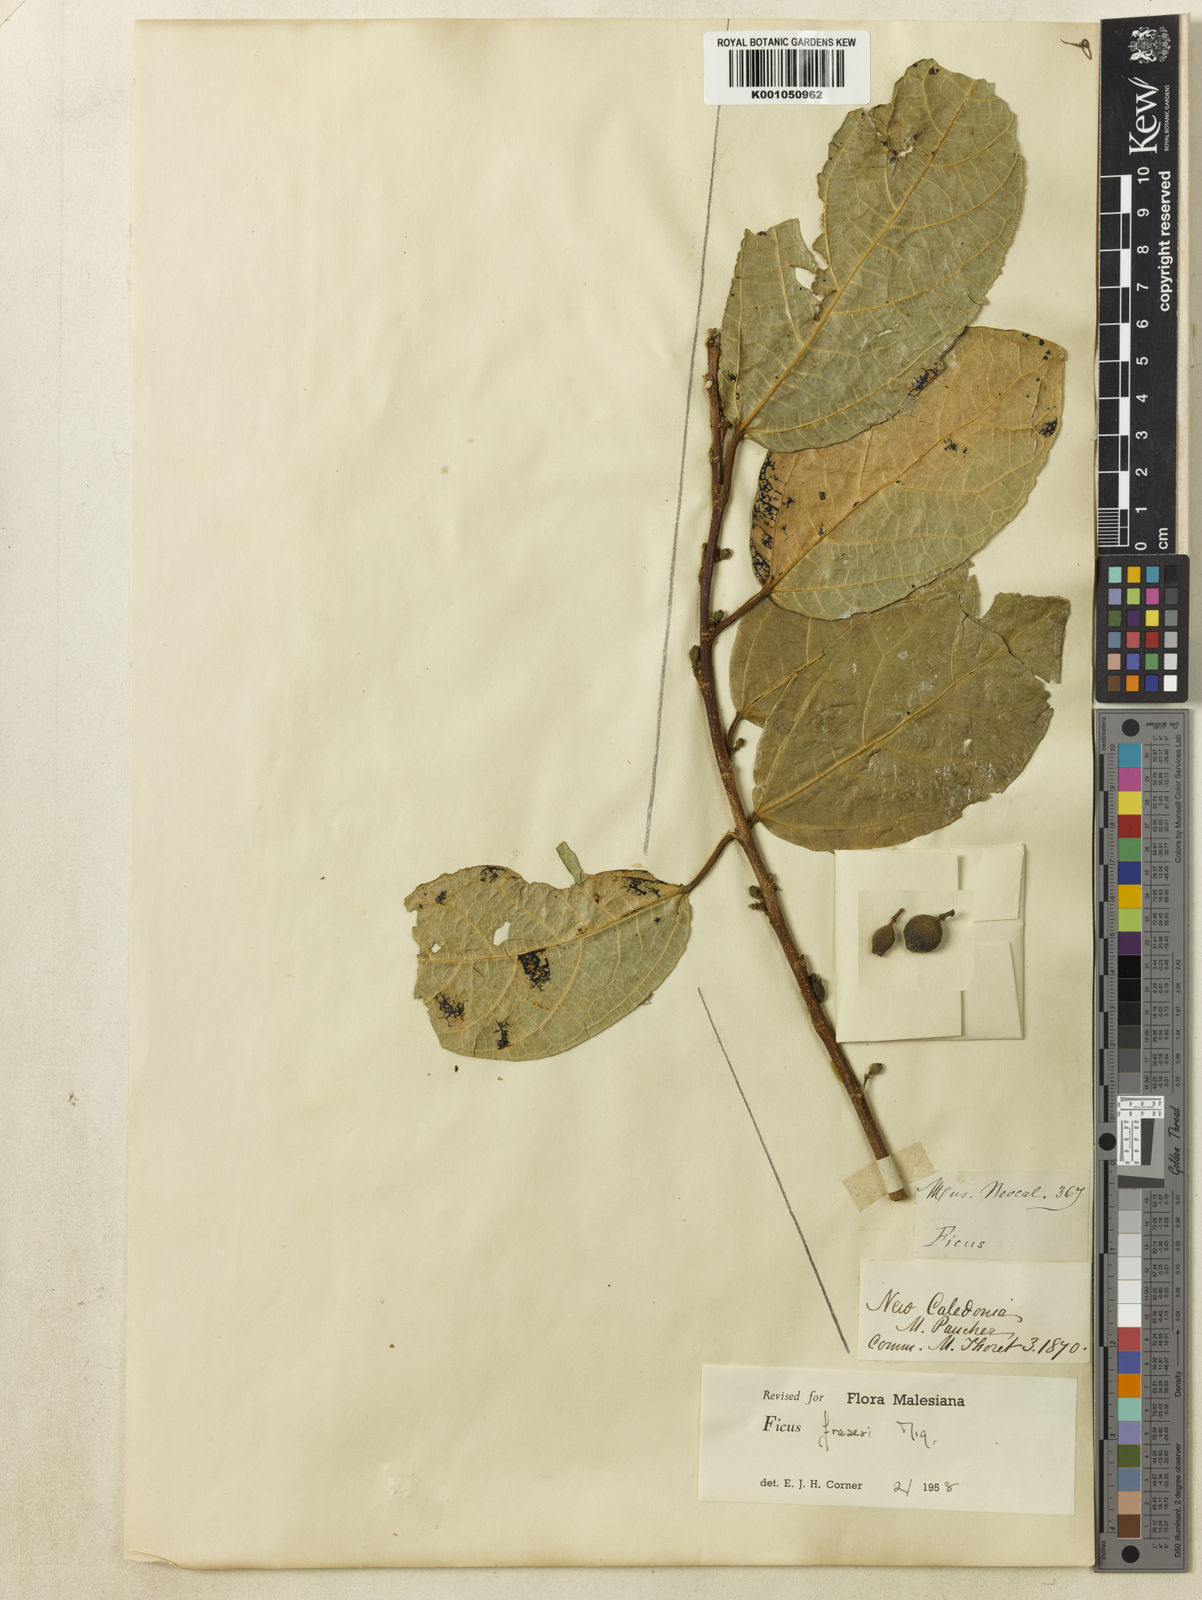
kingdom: Plantae
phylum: Tracheophyta
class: Magnoliopsida
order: Rosales
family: Moraceae
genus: Ficus
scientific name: Ficus fraseri
